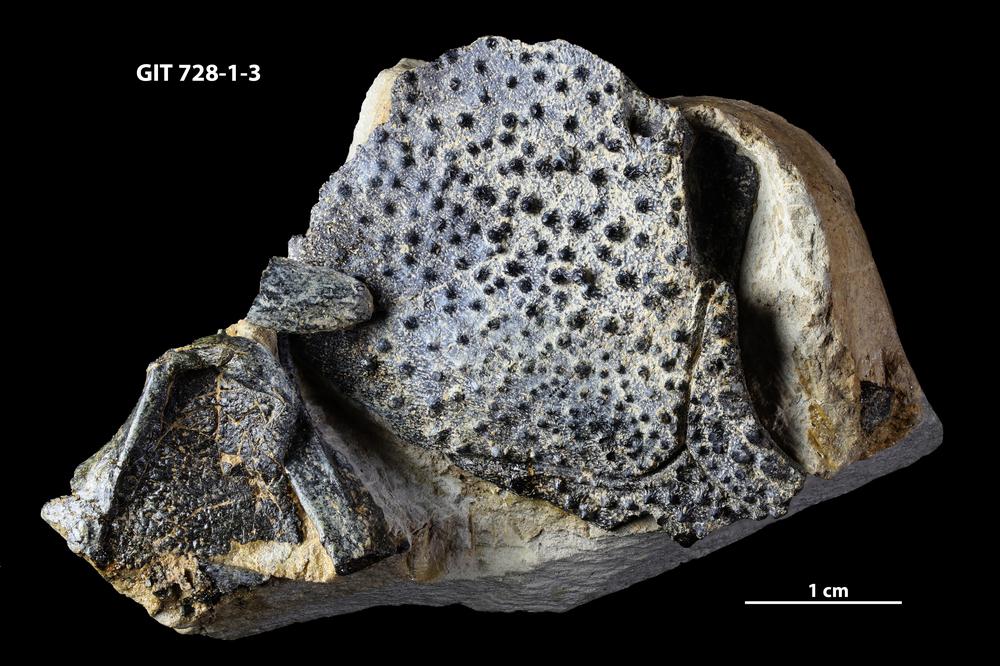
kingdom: Animalia
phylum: Chordata
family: Coccosteidae
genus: Watsonosteus
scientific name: Watsonosteus
